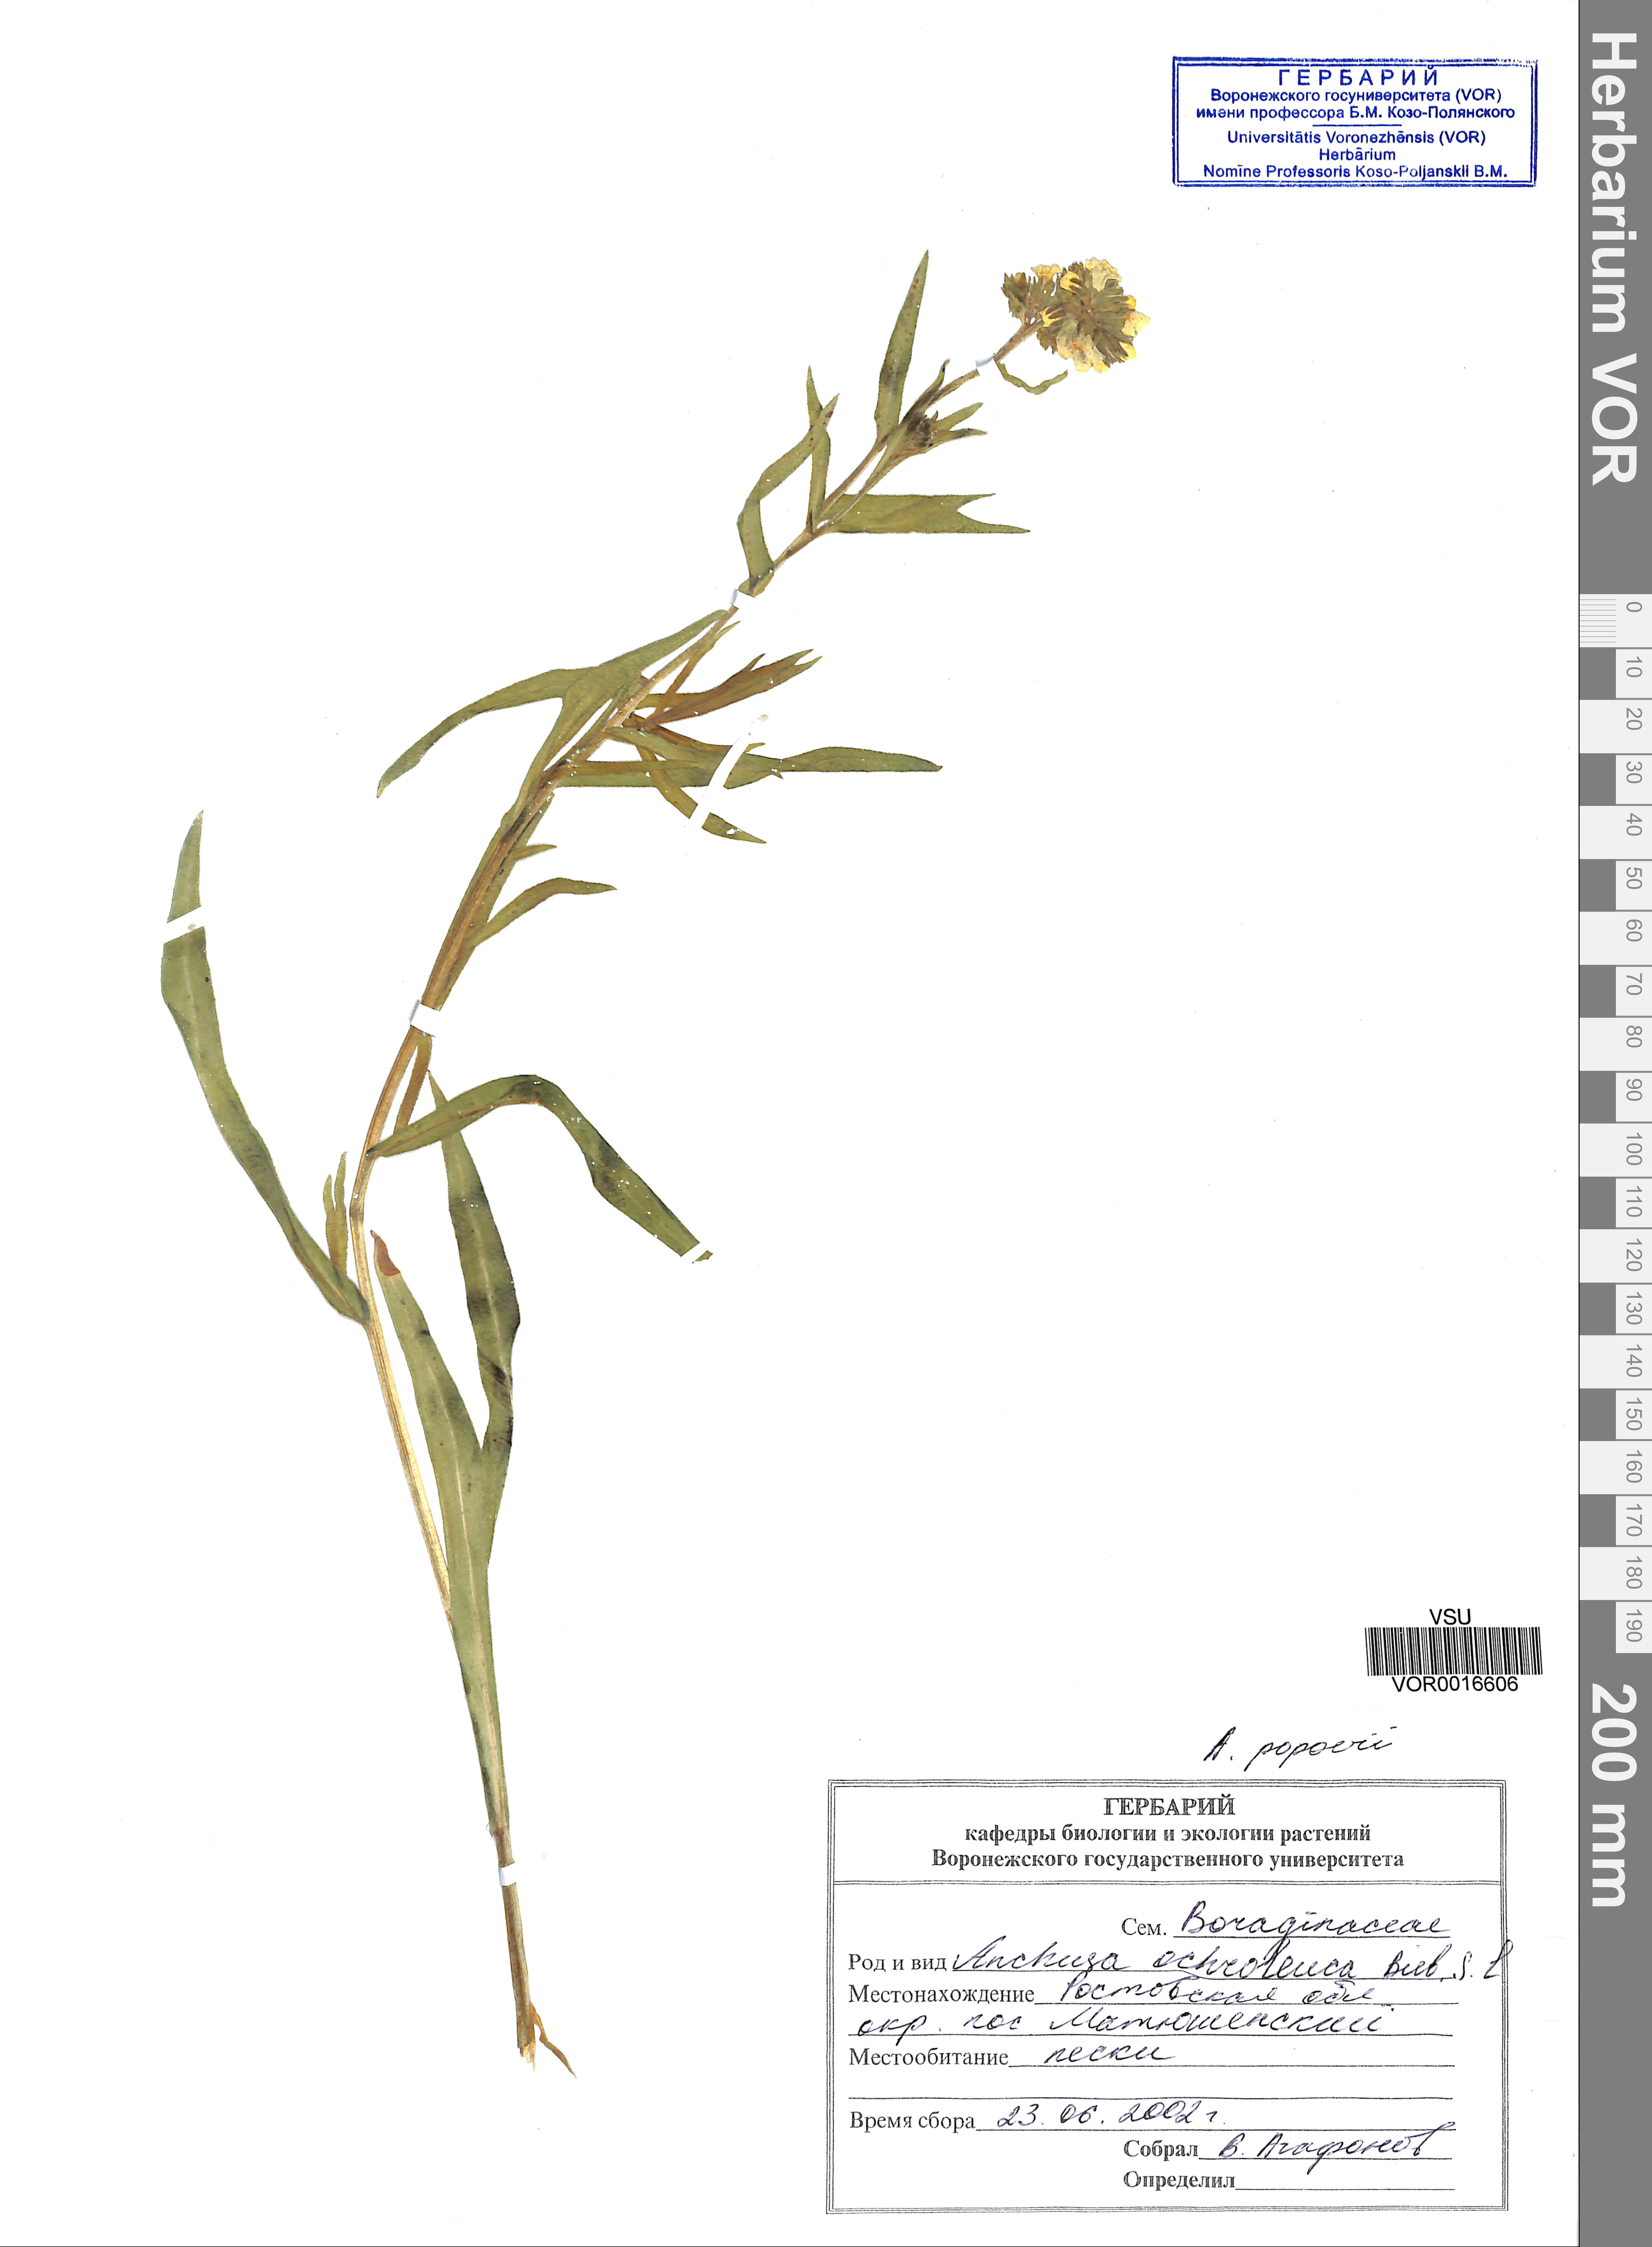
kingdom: Plantae
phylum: Tracheophyta
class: Magnoliopsida
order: Boraginales
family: Boraginaceae
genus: Anchusa
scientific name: Anchusa ochroleuca
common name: Yellow alkanet
